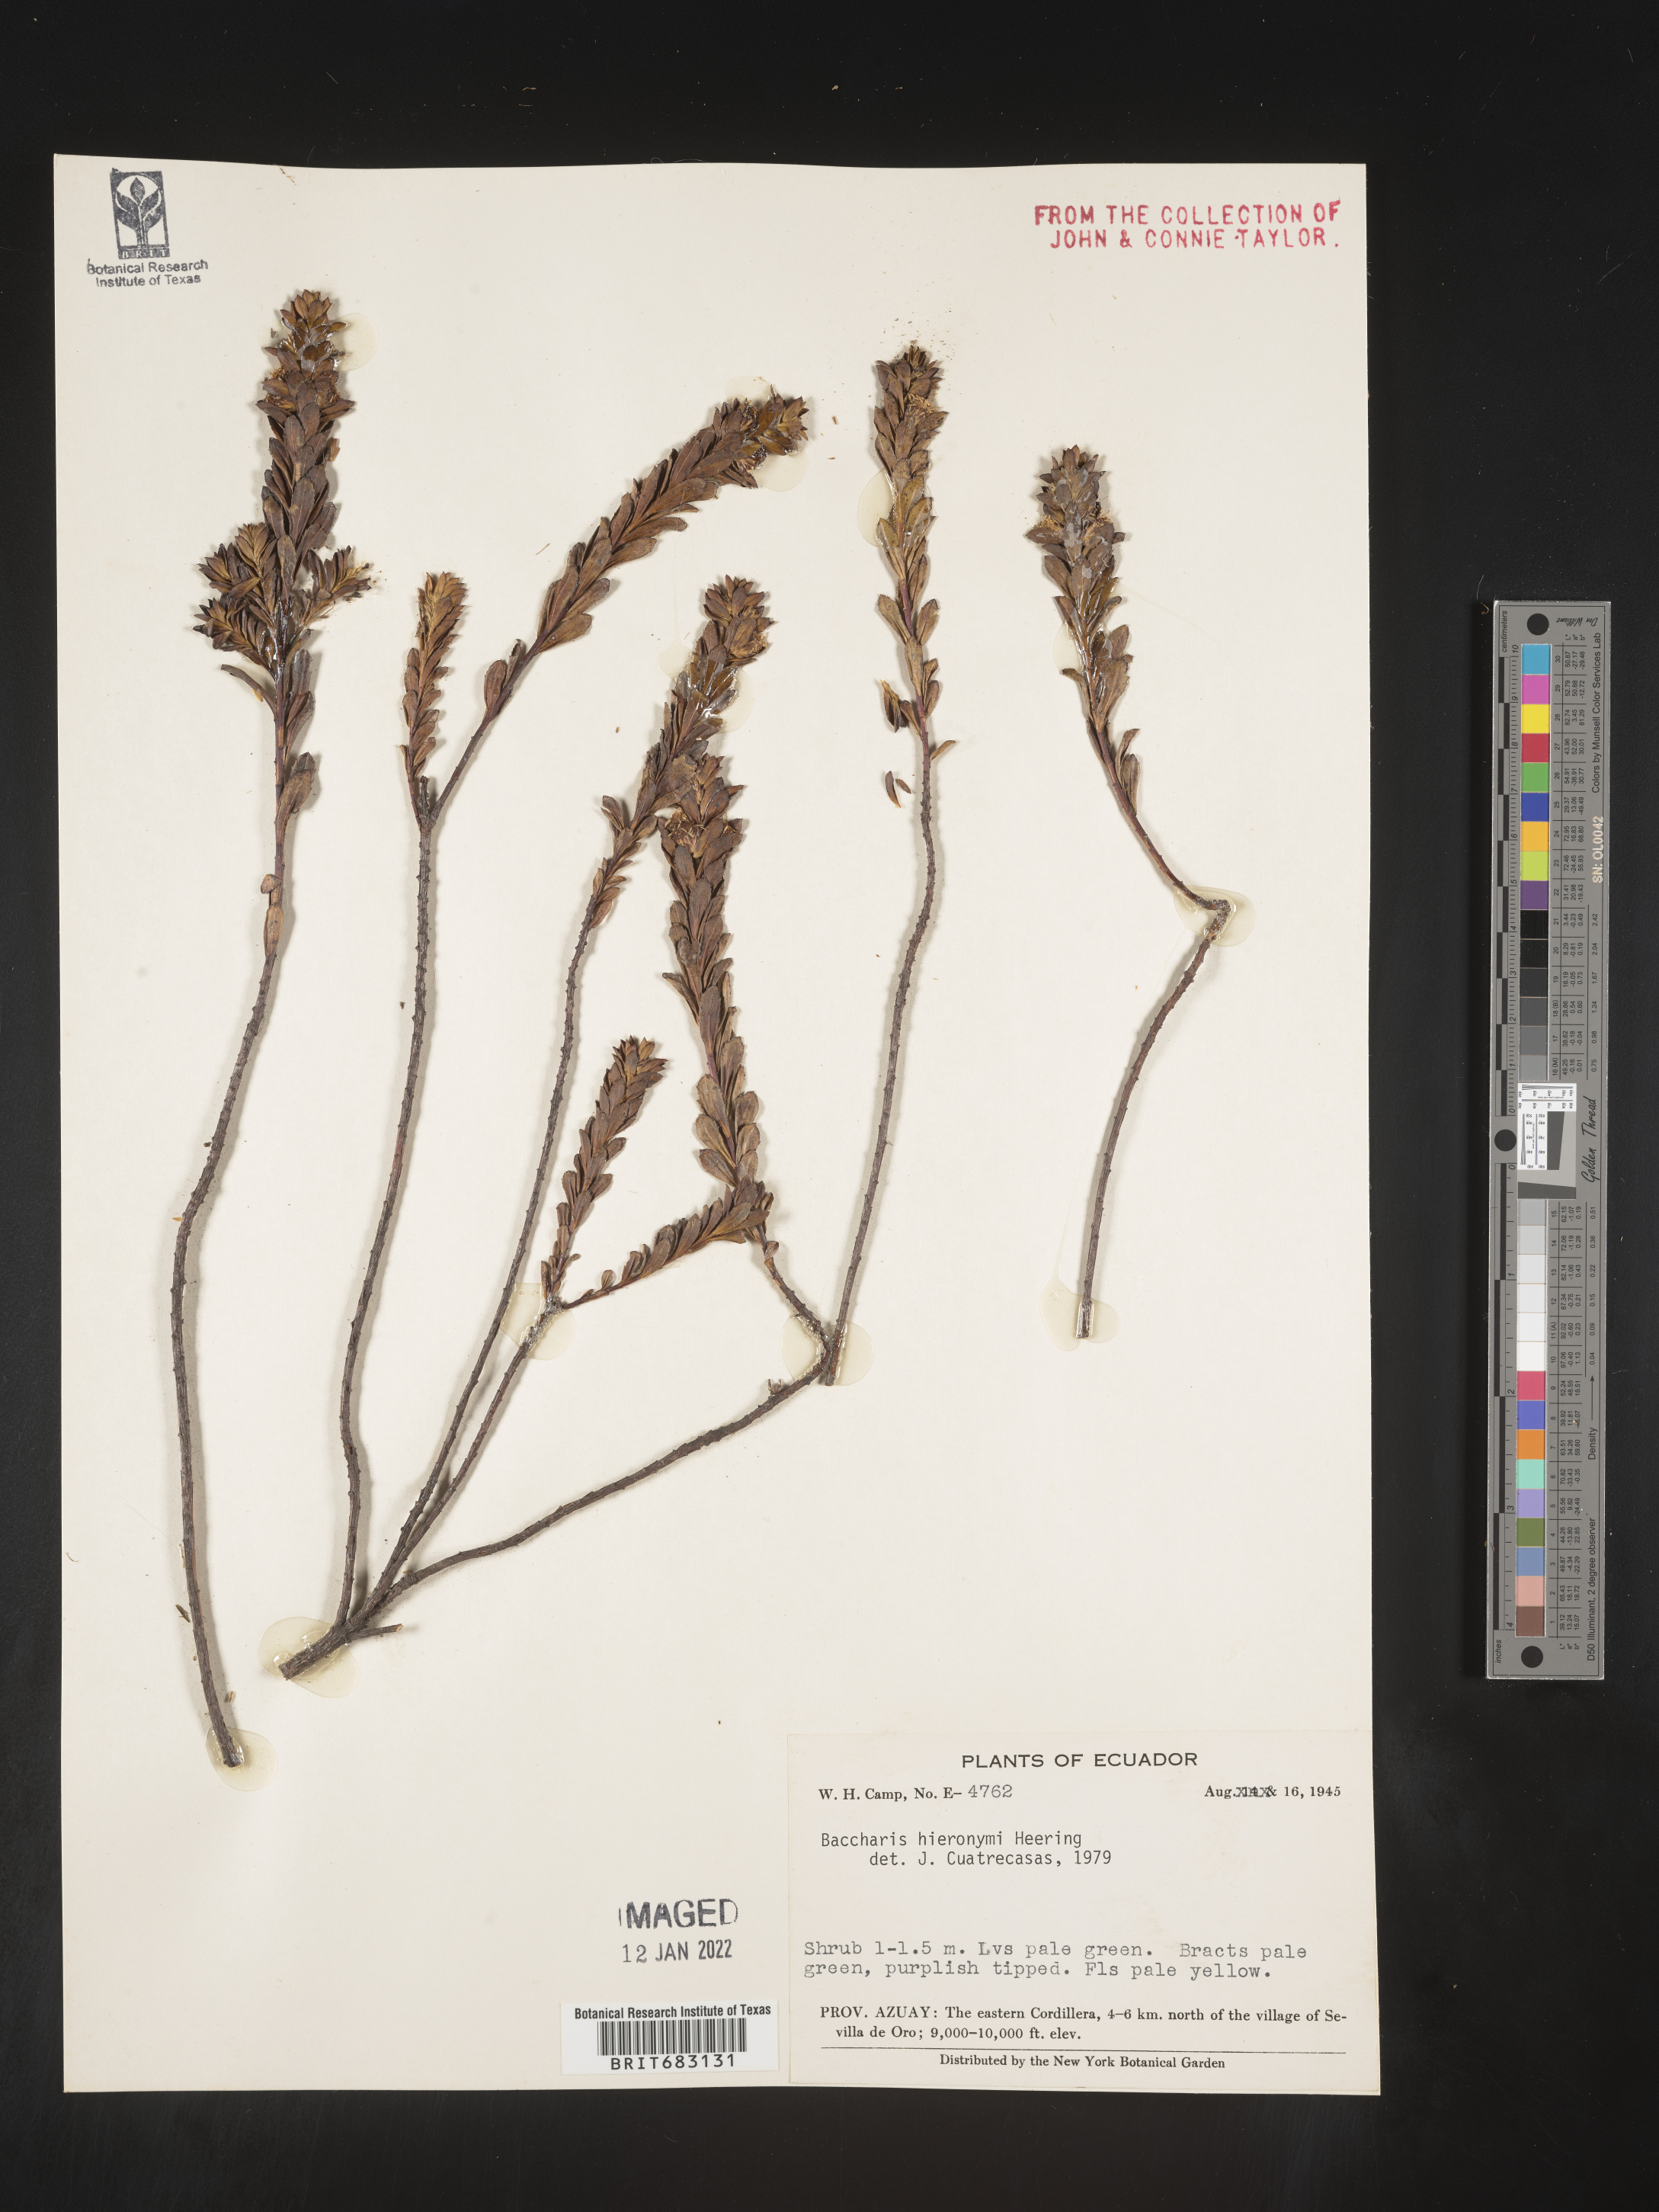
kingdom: Plantae
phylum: Tracheophyta
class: Magnoliopsida
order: Asterales
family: Asteraceae
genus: Baccharis
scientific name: Baccharis
